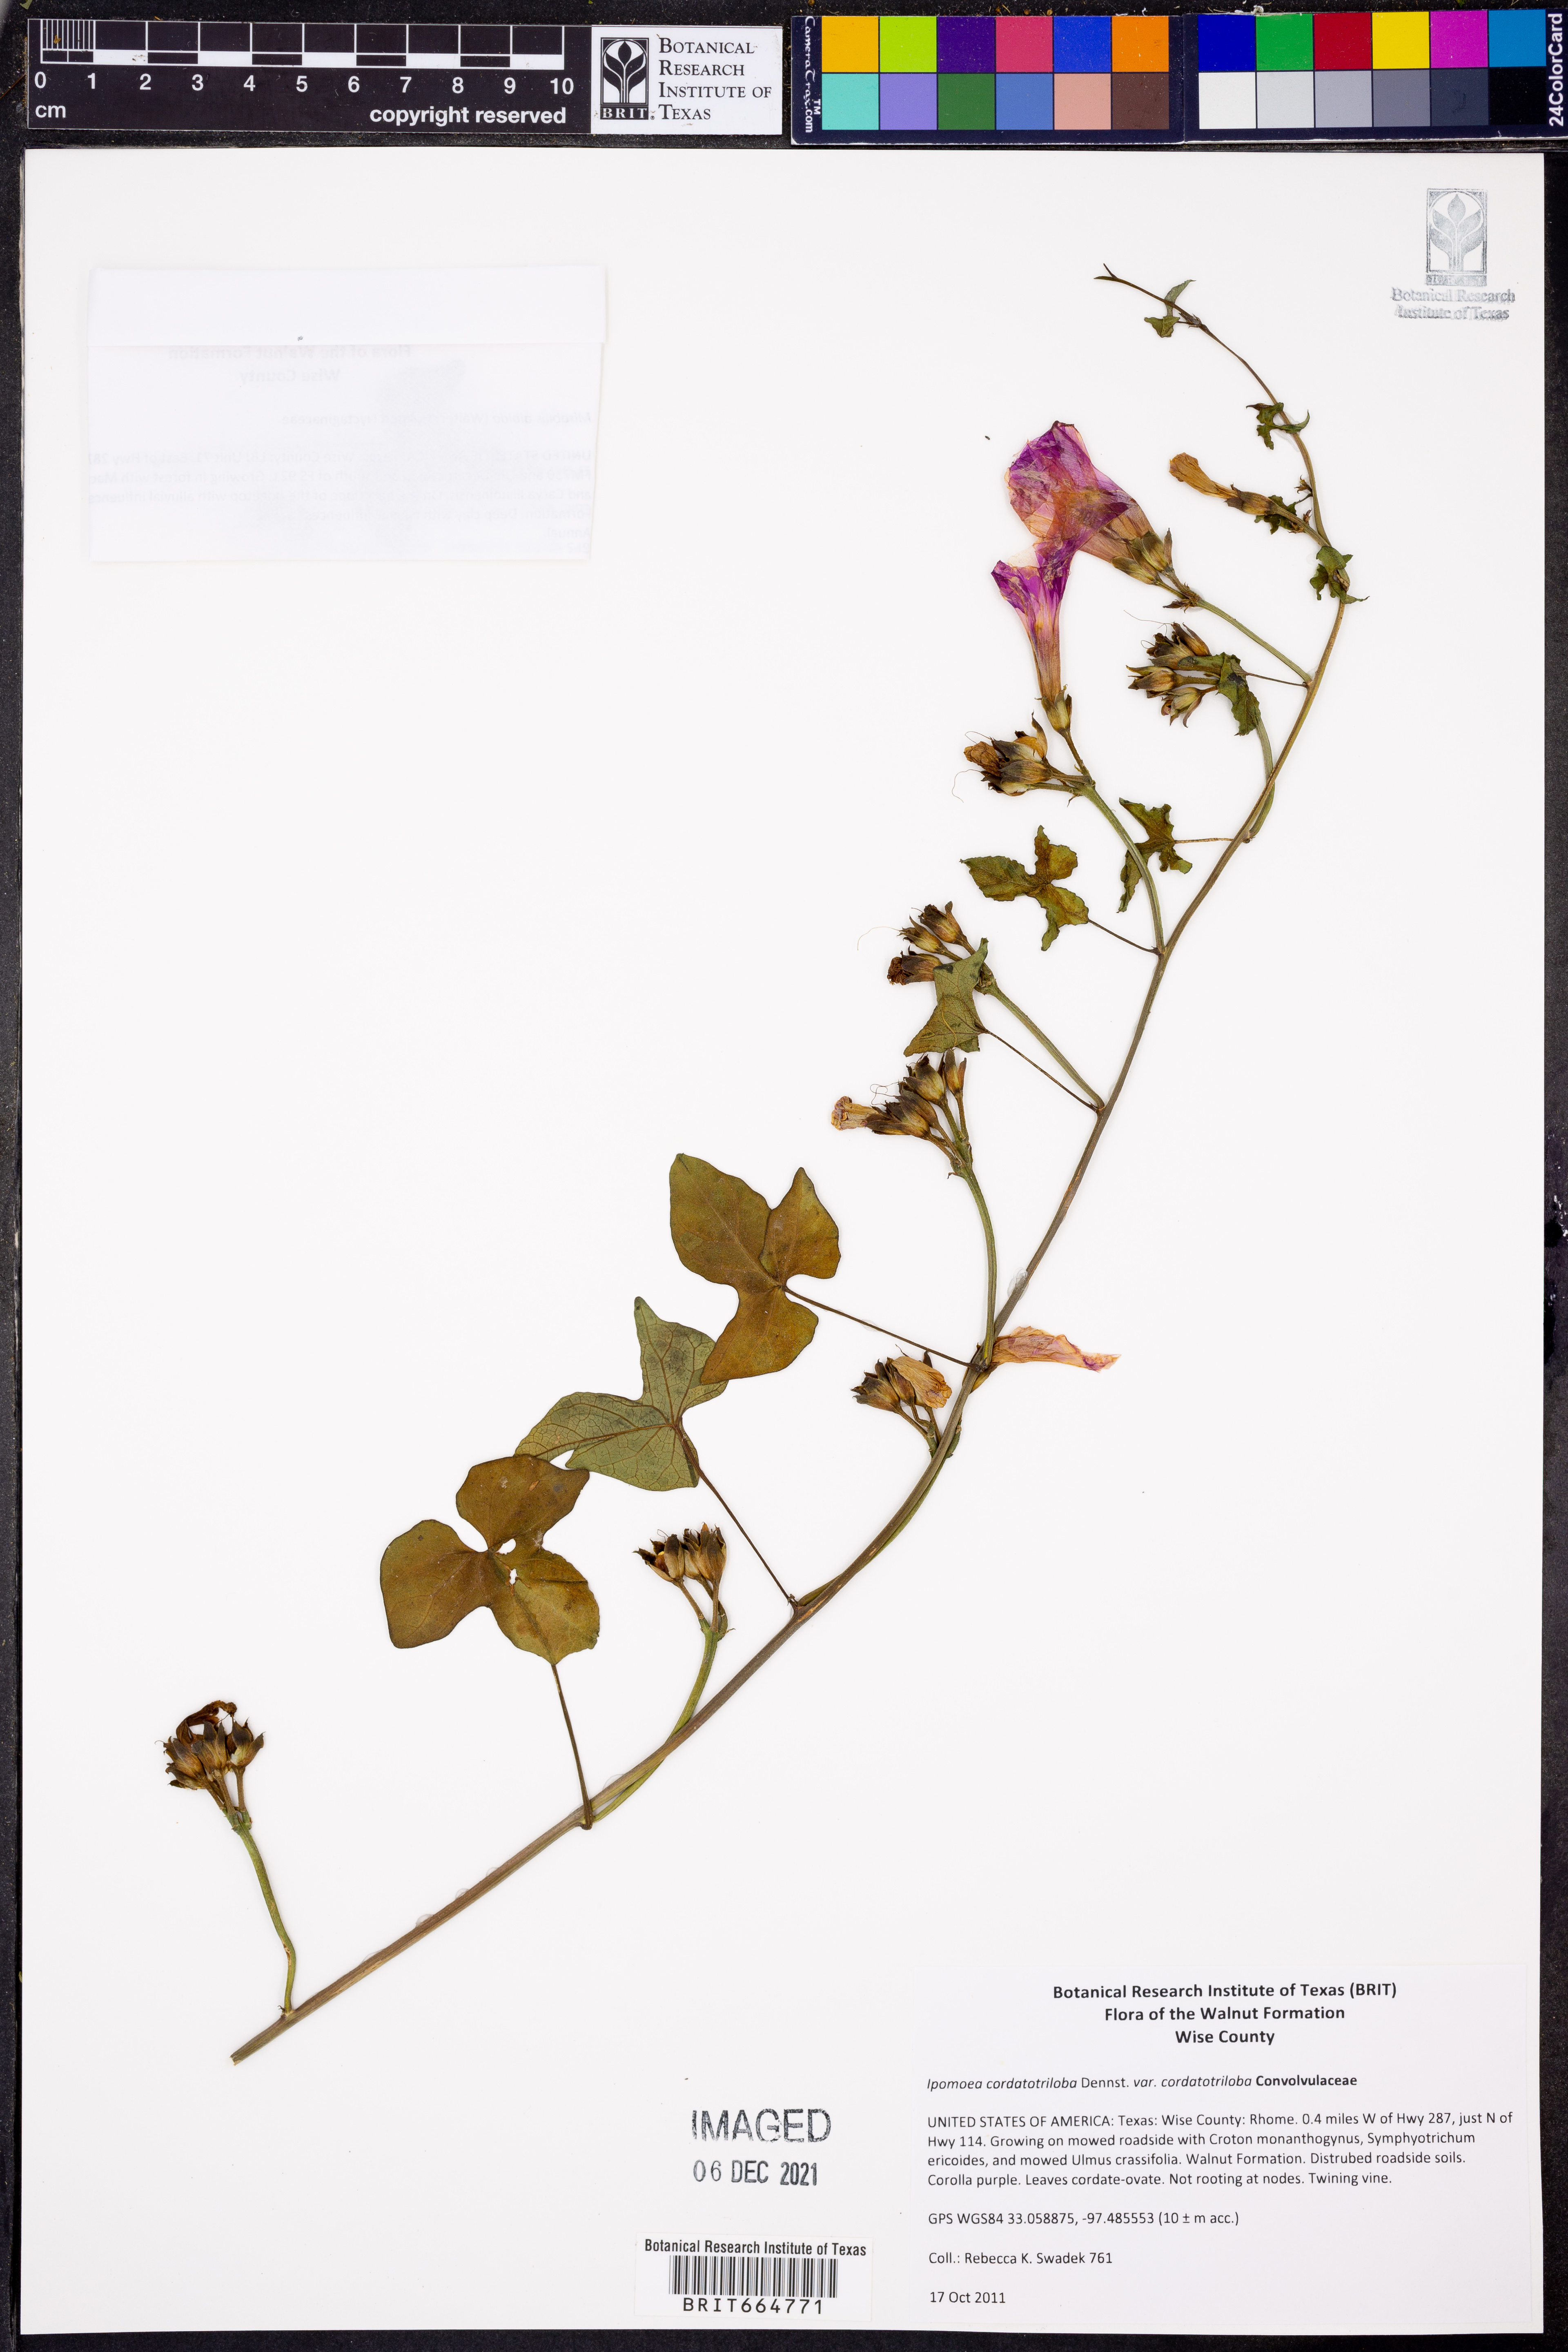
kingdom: Plantae
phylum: Tracheophyta
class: Magnoliopsida
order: Solanales
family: Convolvulaceae
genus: Ipomoea
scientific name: Ipomoea cordatotriloba
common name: Cotton morning glory
